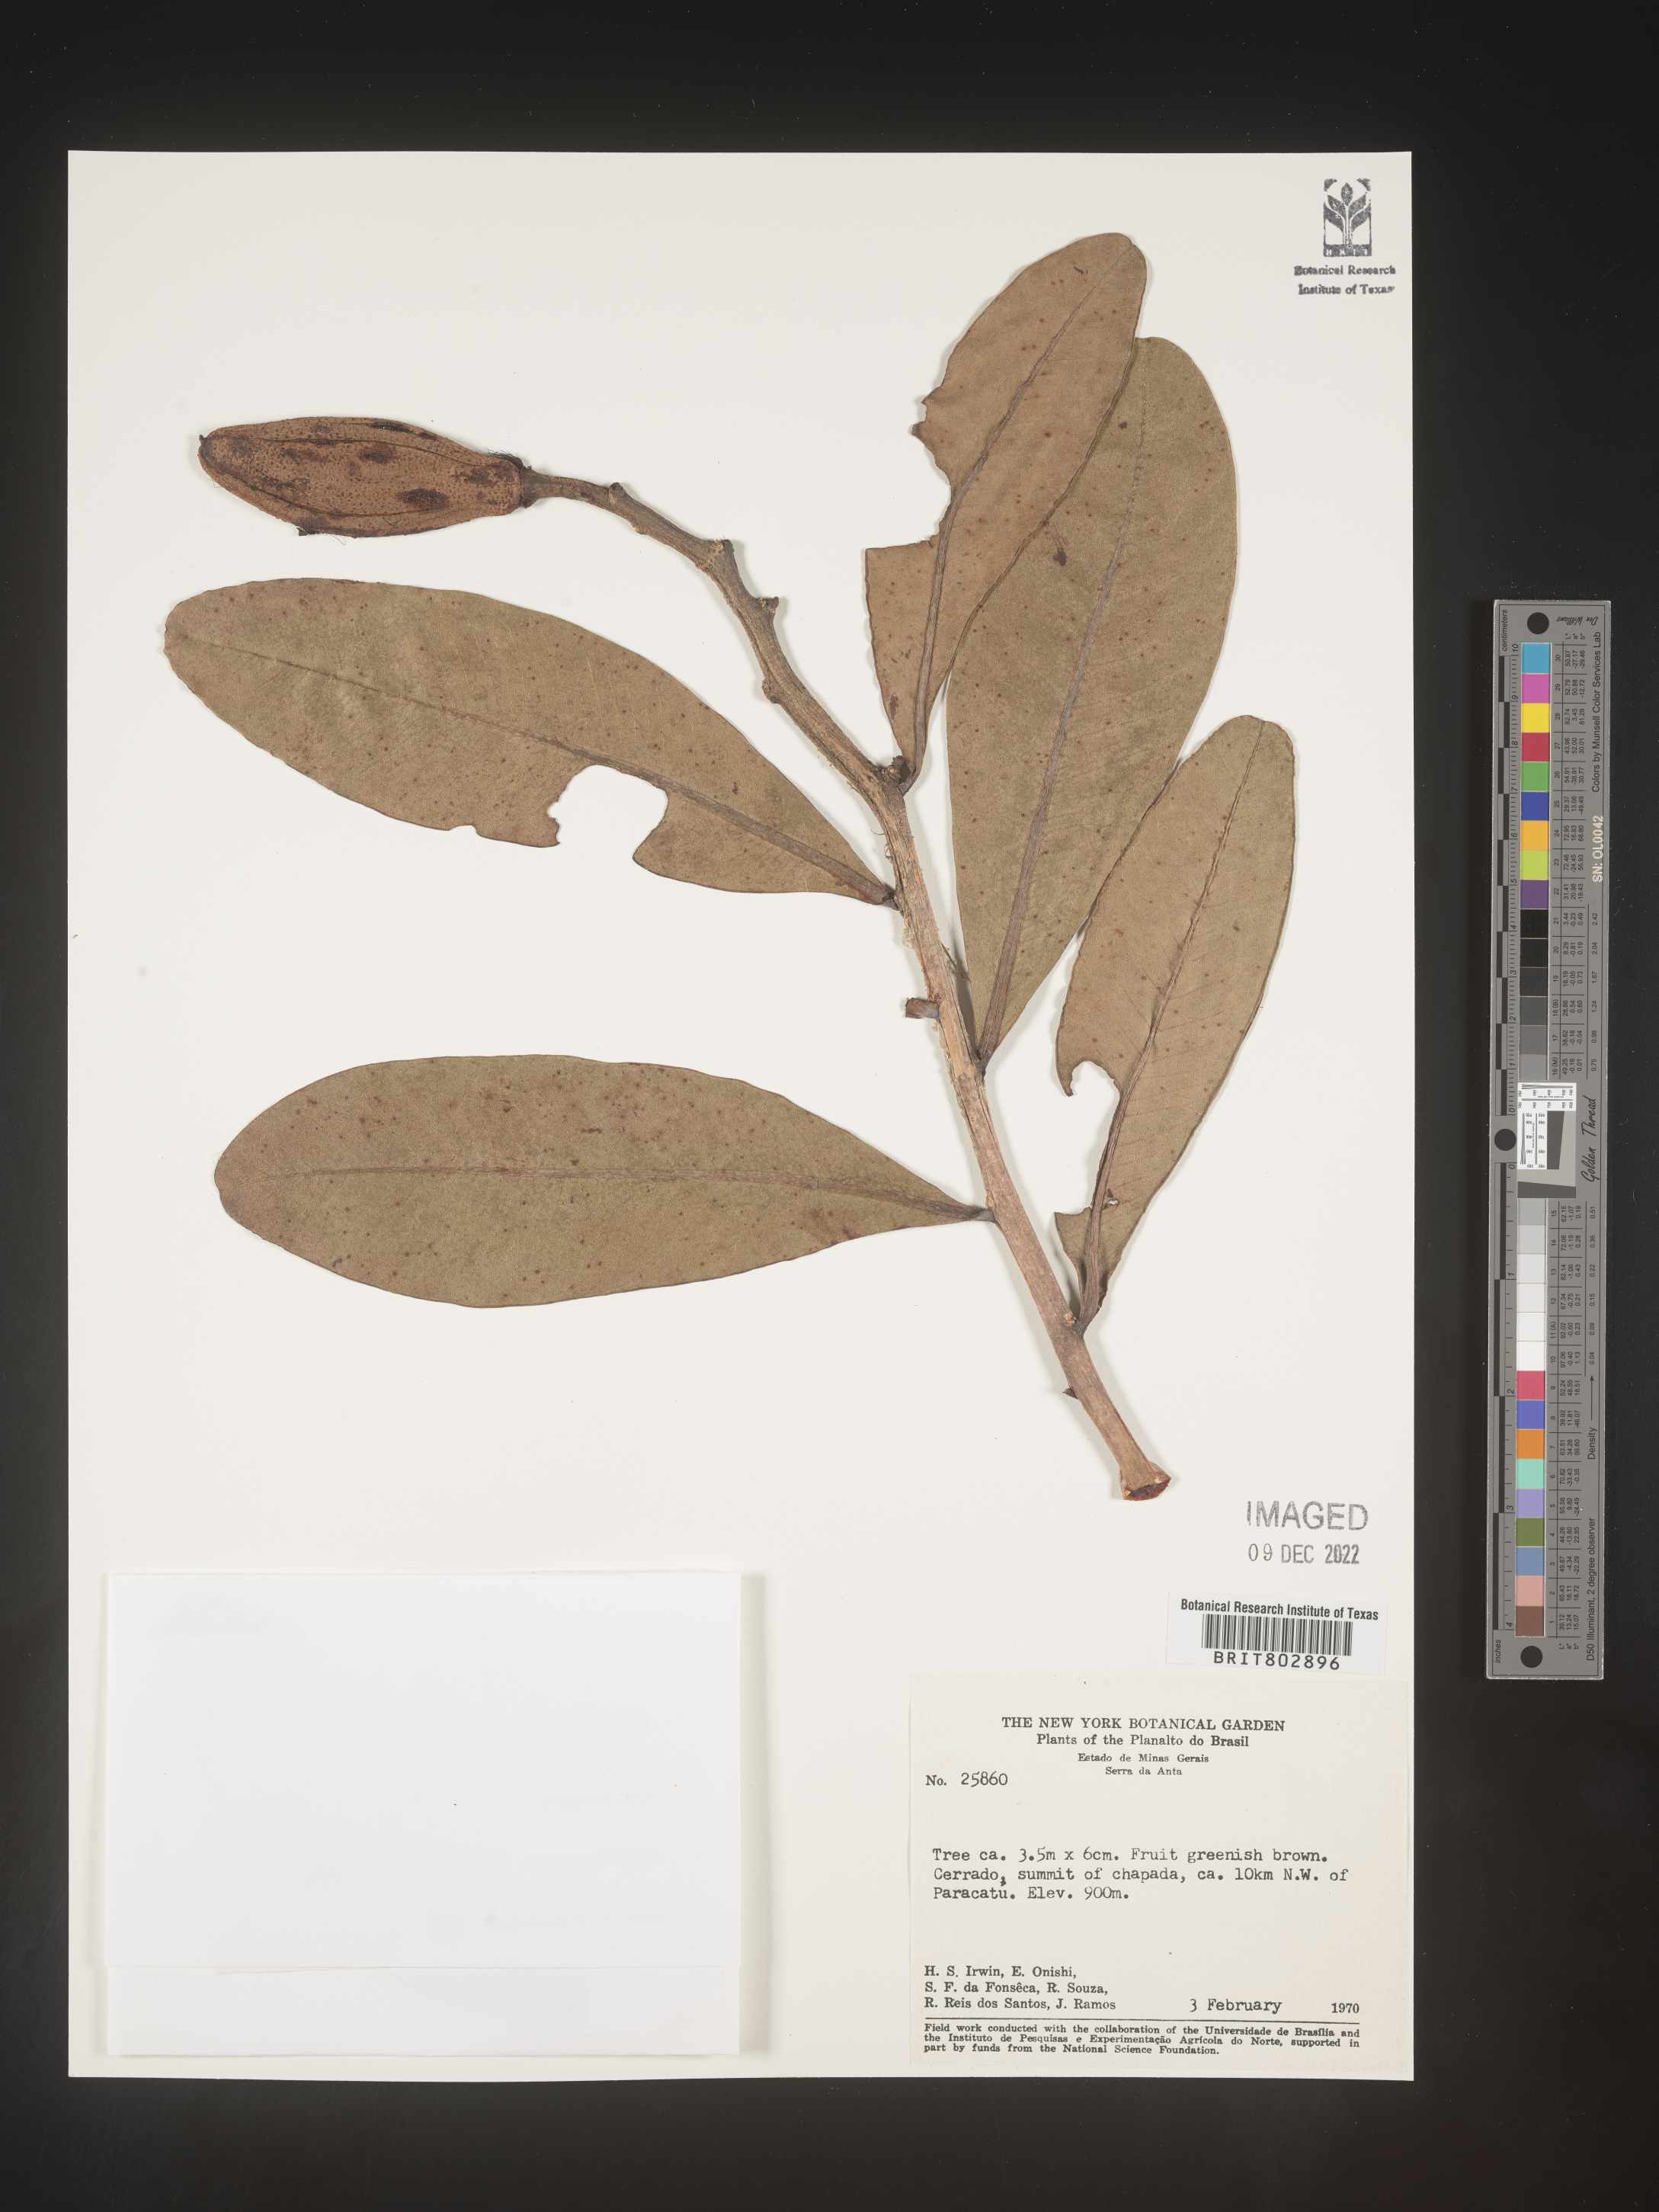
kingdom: Plantae
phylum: Tracheophyta
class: Magnoliopsida
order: Malpighiales
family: Calophyllaceae
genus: Kielmeyera
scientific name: Kielmeyera
